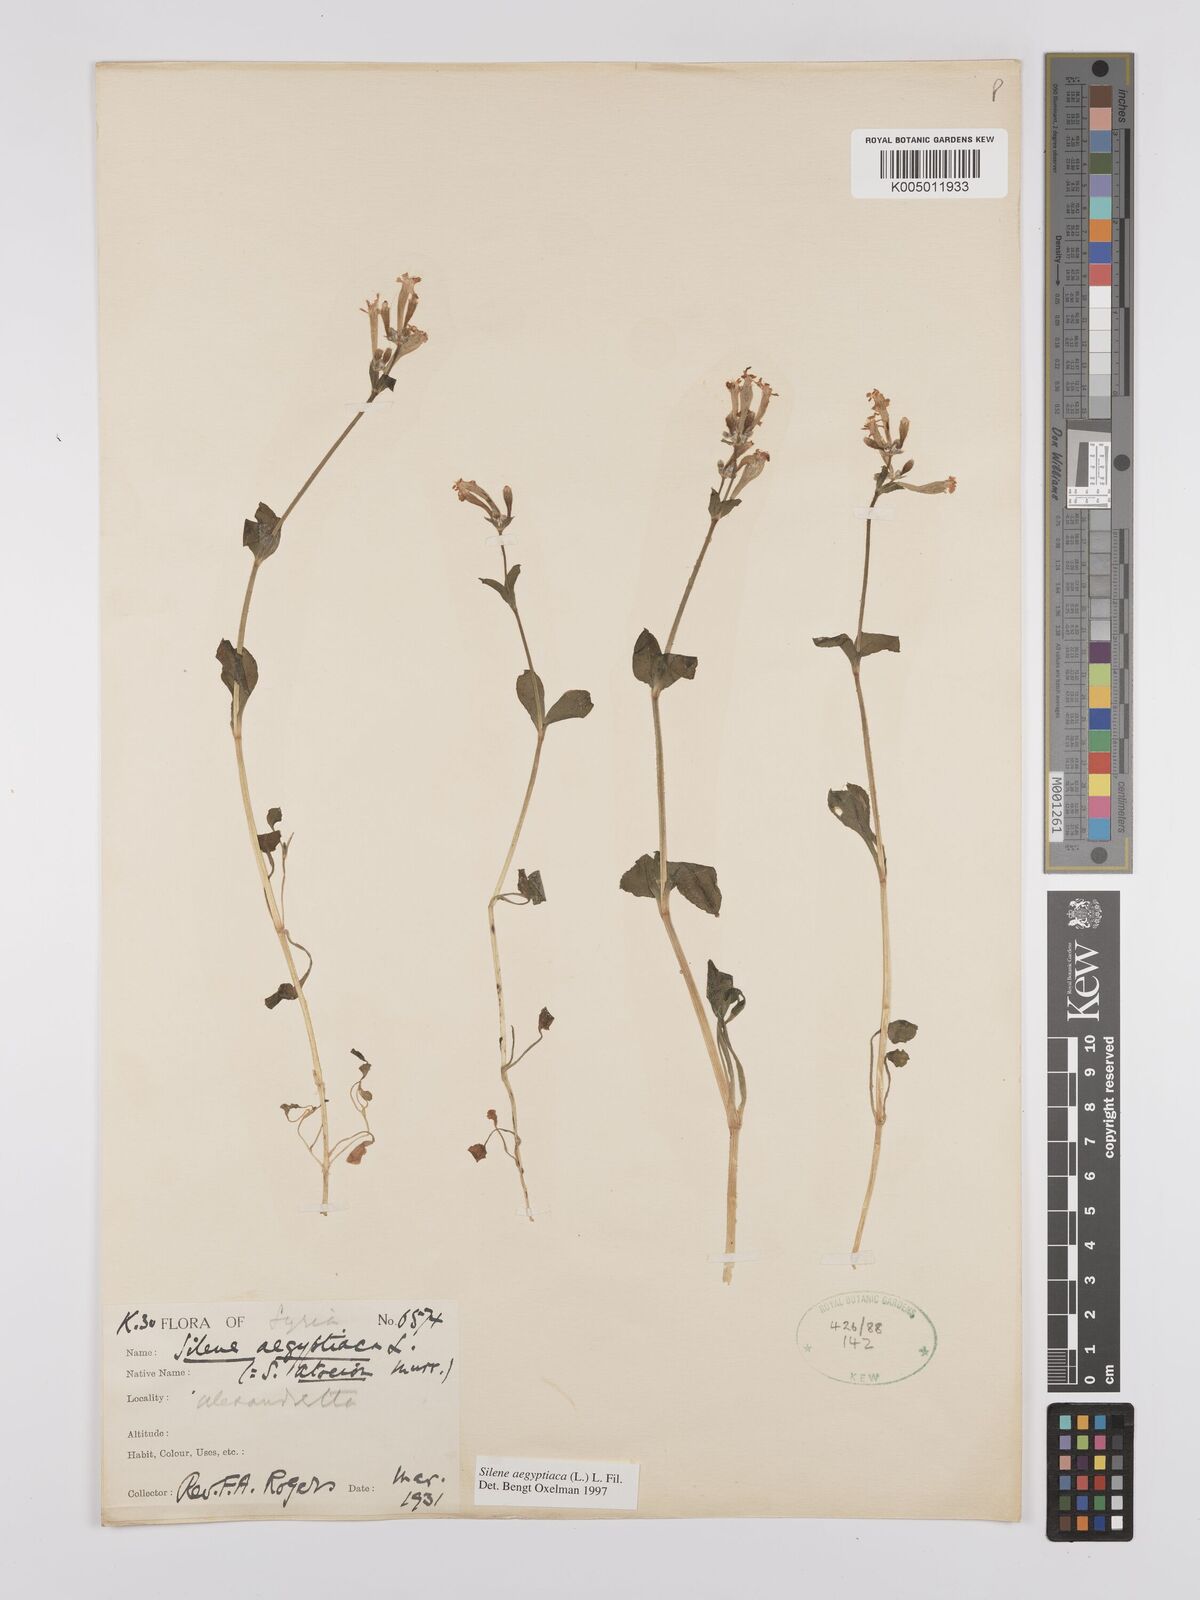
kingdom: Plantae
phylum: Tracheophyta
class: Magnoliopsida
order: Caryophyllales
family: Caryophyllaceae
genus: Silene
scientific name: Silene aegyptiaca
